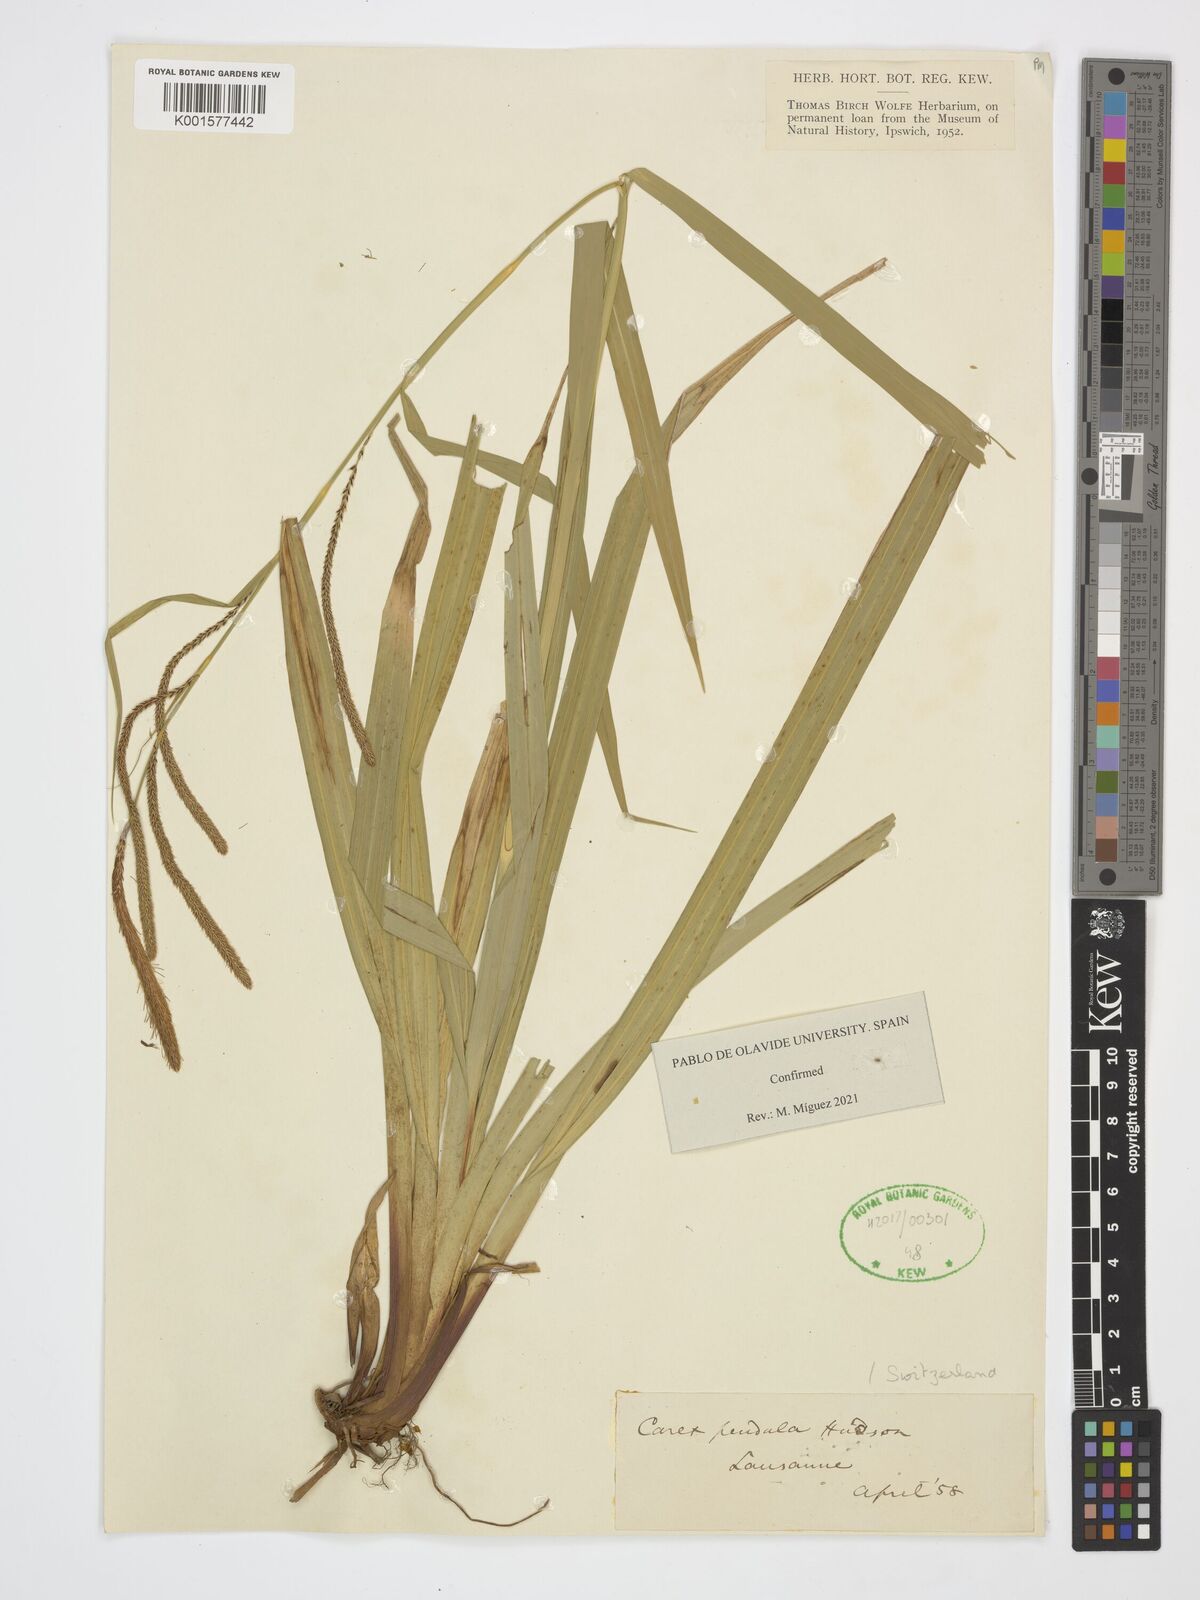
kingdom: Plantae
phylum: Tracheophyta
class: Liliopsida
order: Poales
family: Cyperaceae
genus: Carex
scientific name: Carex pendula
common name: Pendulous sedge
